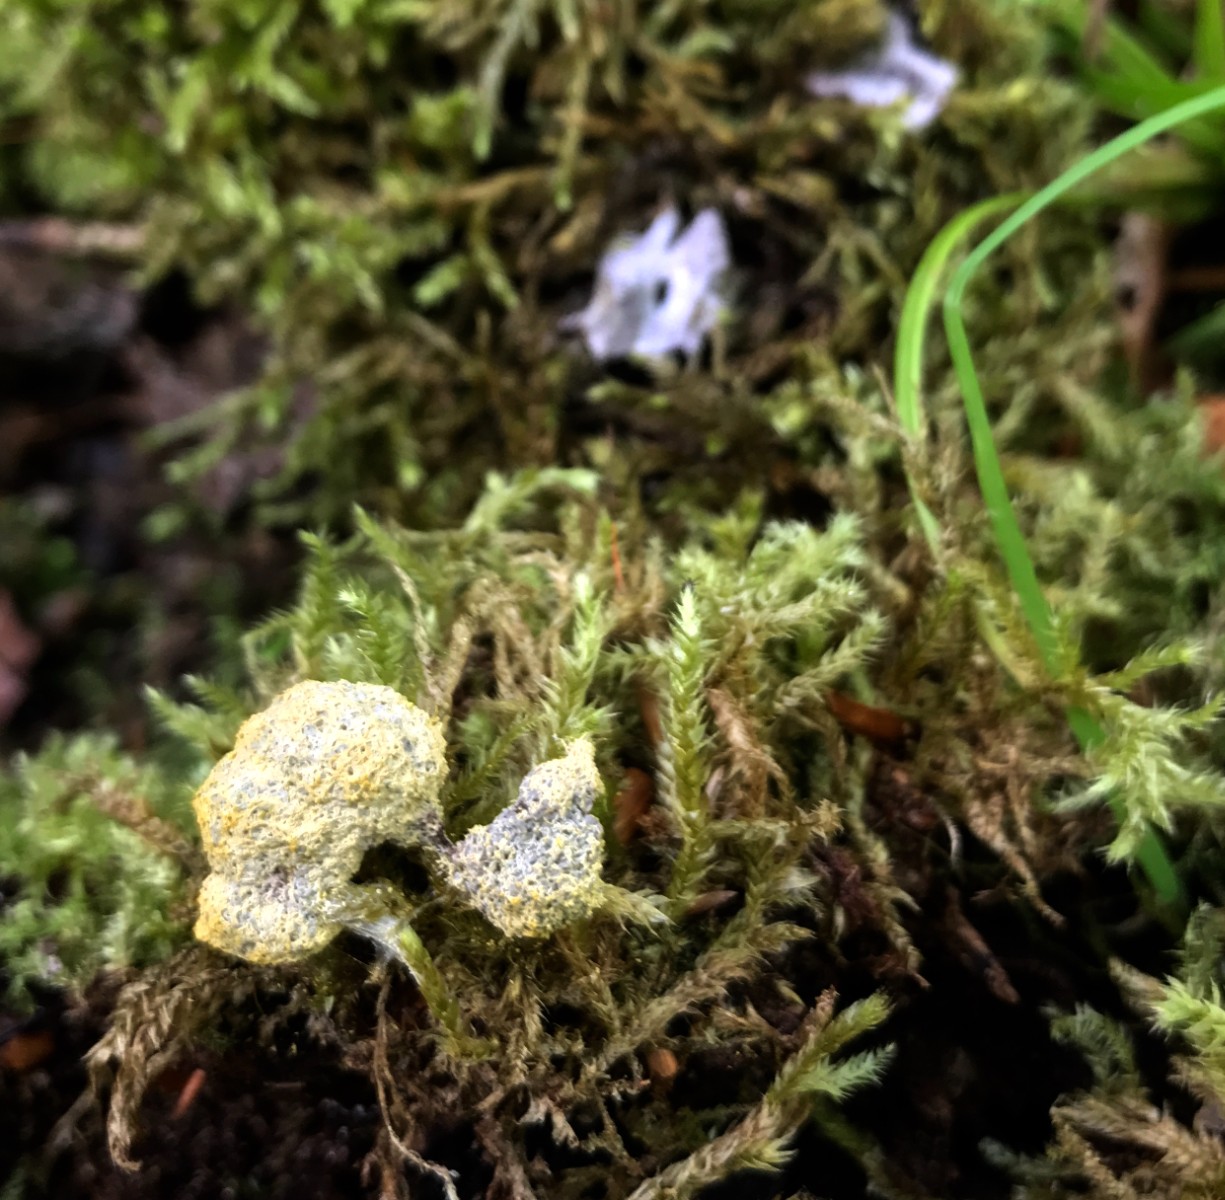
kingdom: Protozoa
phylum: Mycetozoa
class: Myxomycetes
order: Physarales
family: Physaraceae
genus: Fuligo
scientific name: Fuligo septica
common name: gul troldsmør
